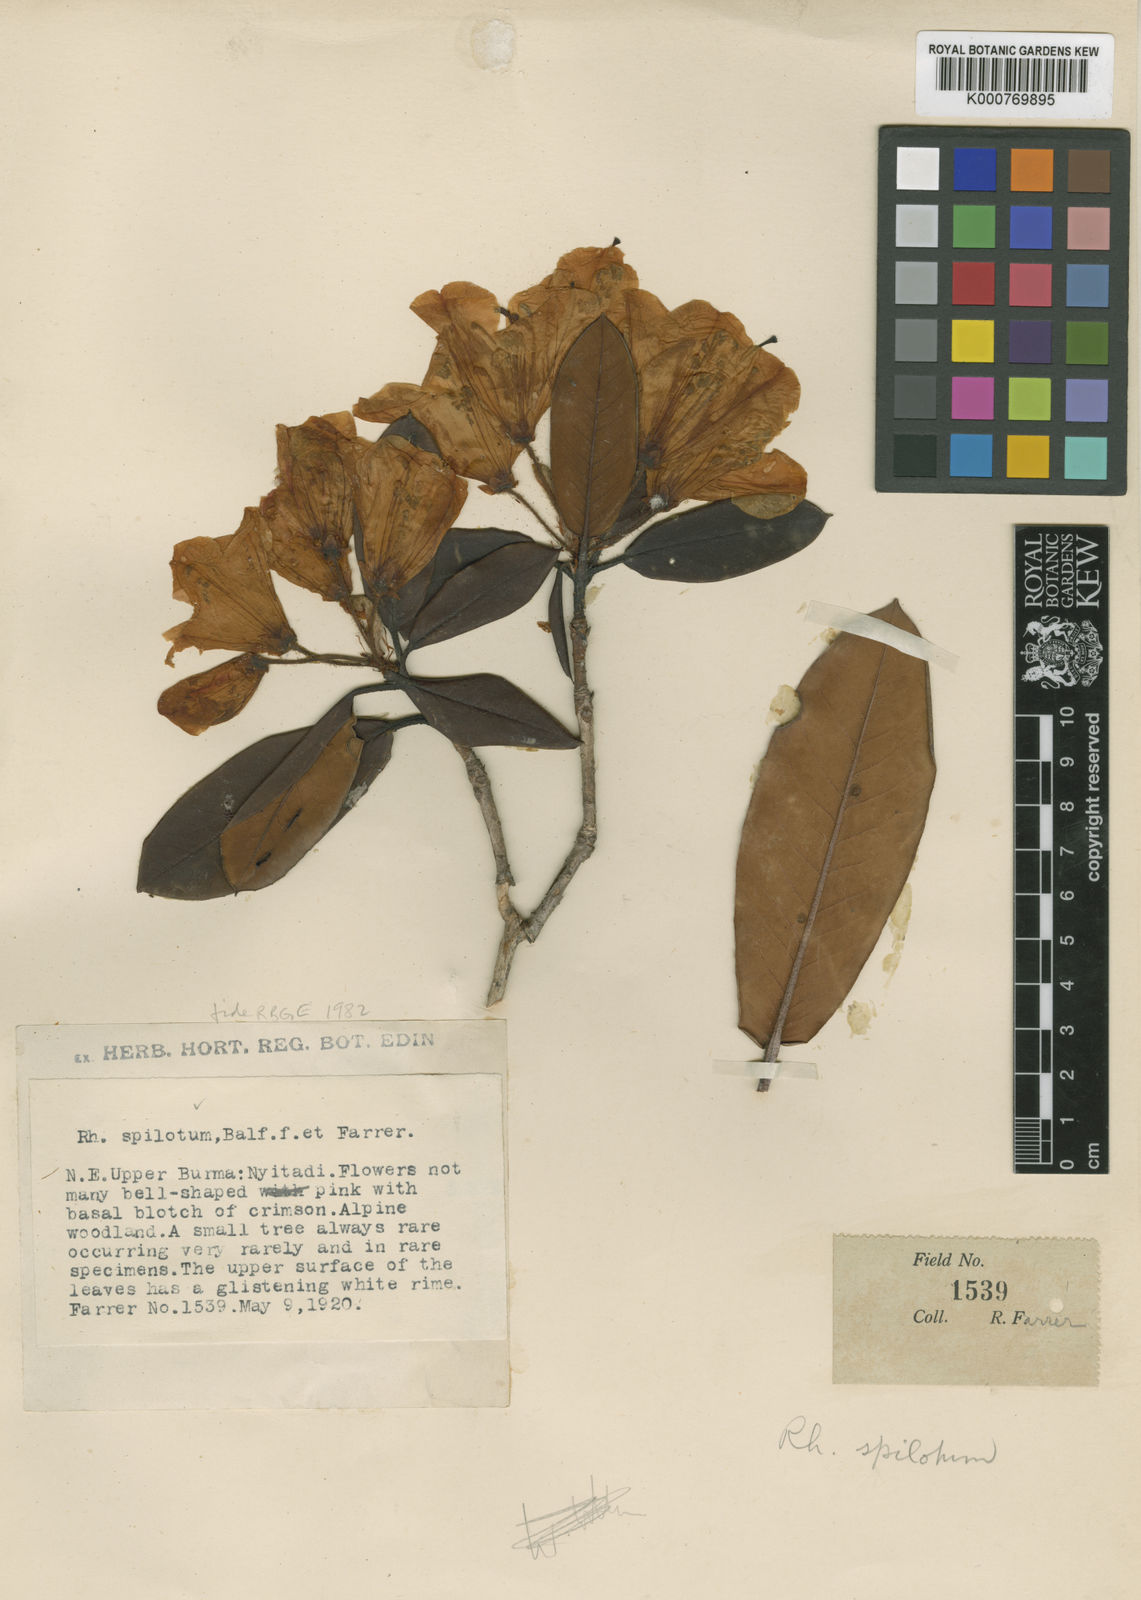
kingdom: Plantae
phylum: Tracheophyta
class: Magnoliopsida
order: Ericales
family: Ericaceae
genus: Rhododendron
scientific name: Rhododendron spilotum
